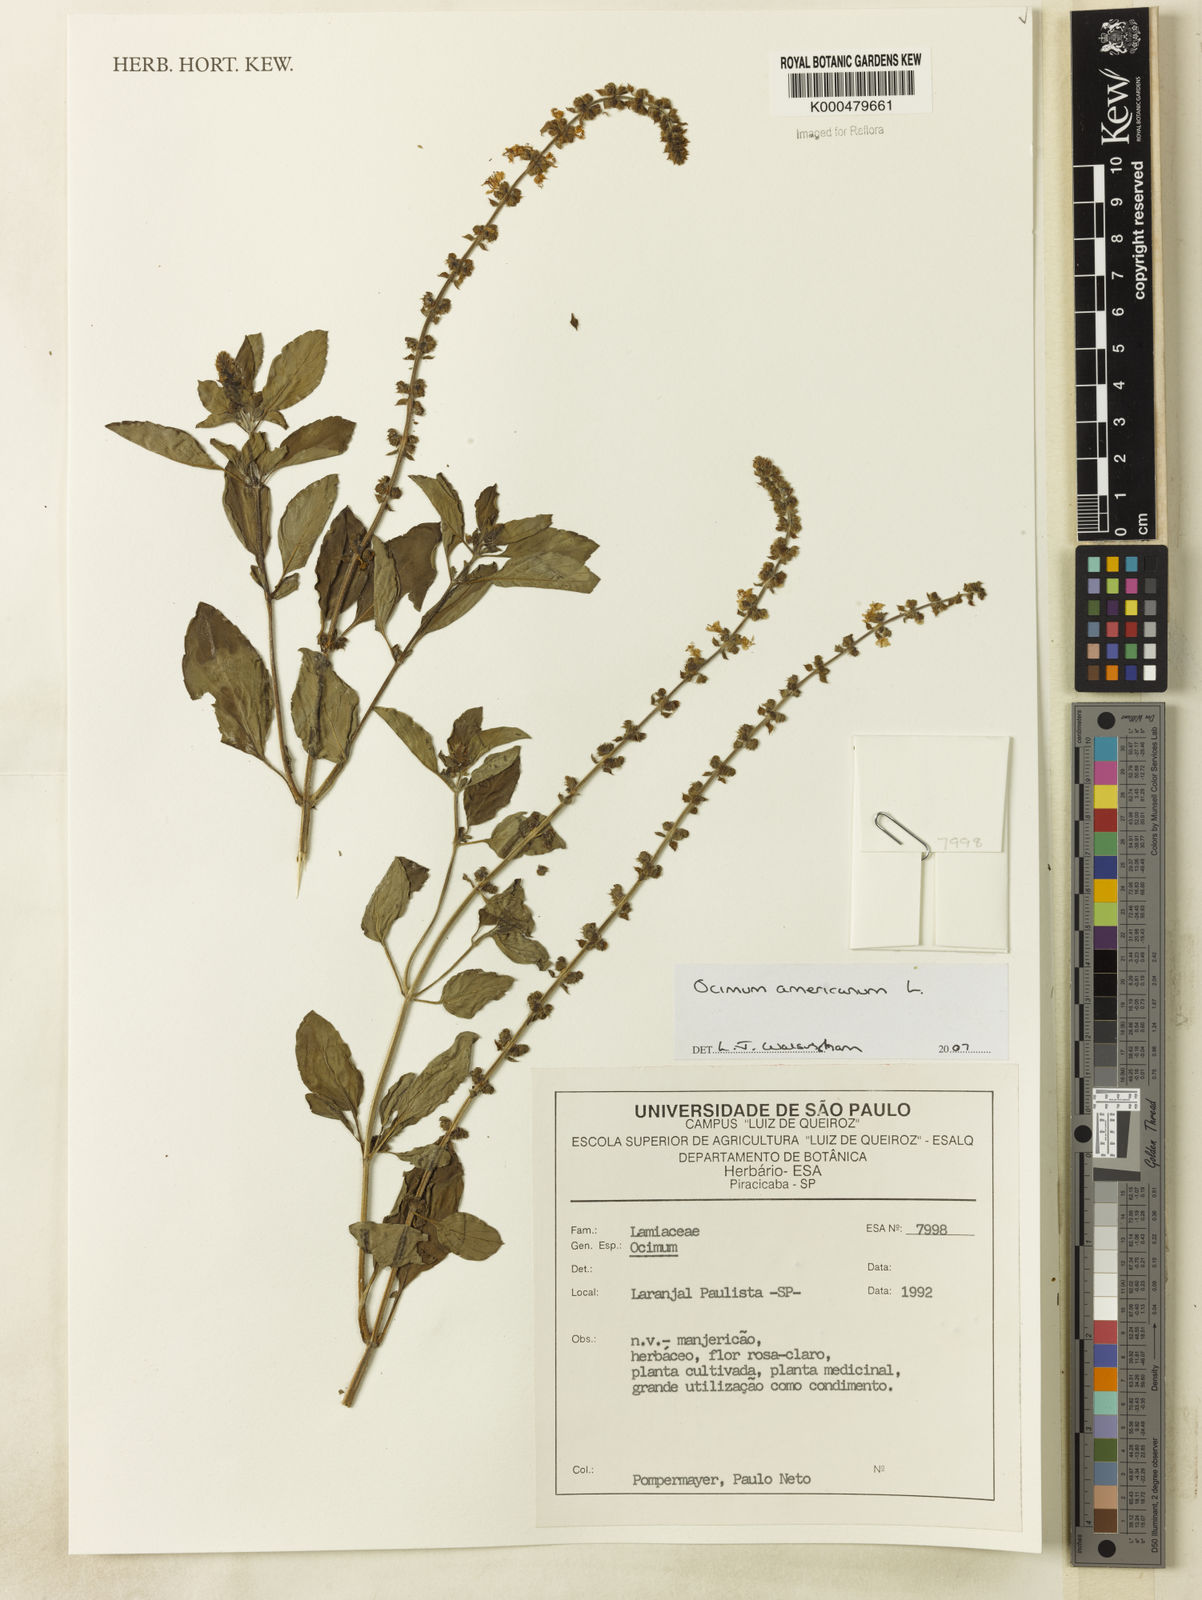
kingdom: Plantae
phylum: Tracheophyta
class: Magnoliopsida
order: Lamiales
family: Lamiaceae
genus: Ocimum
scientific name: Ocimum americanum
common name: American basil
